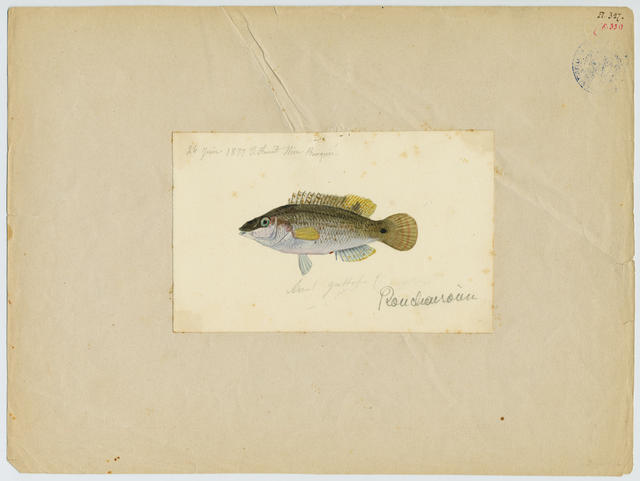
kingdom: Animalia
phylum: Chordata
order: Perciformes
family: Labridae
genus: Symphodus
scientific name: Symphodus ocellatus
